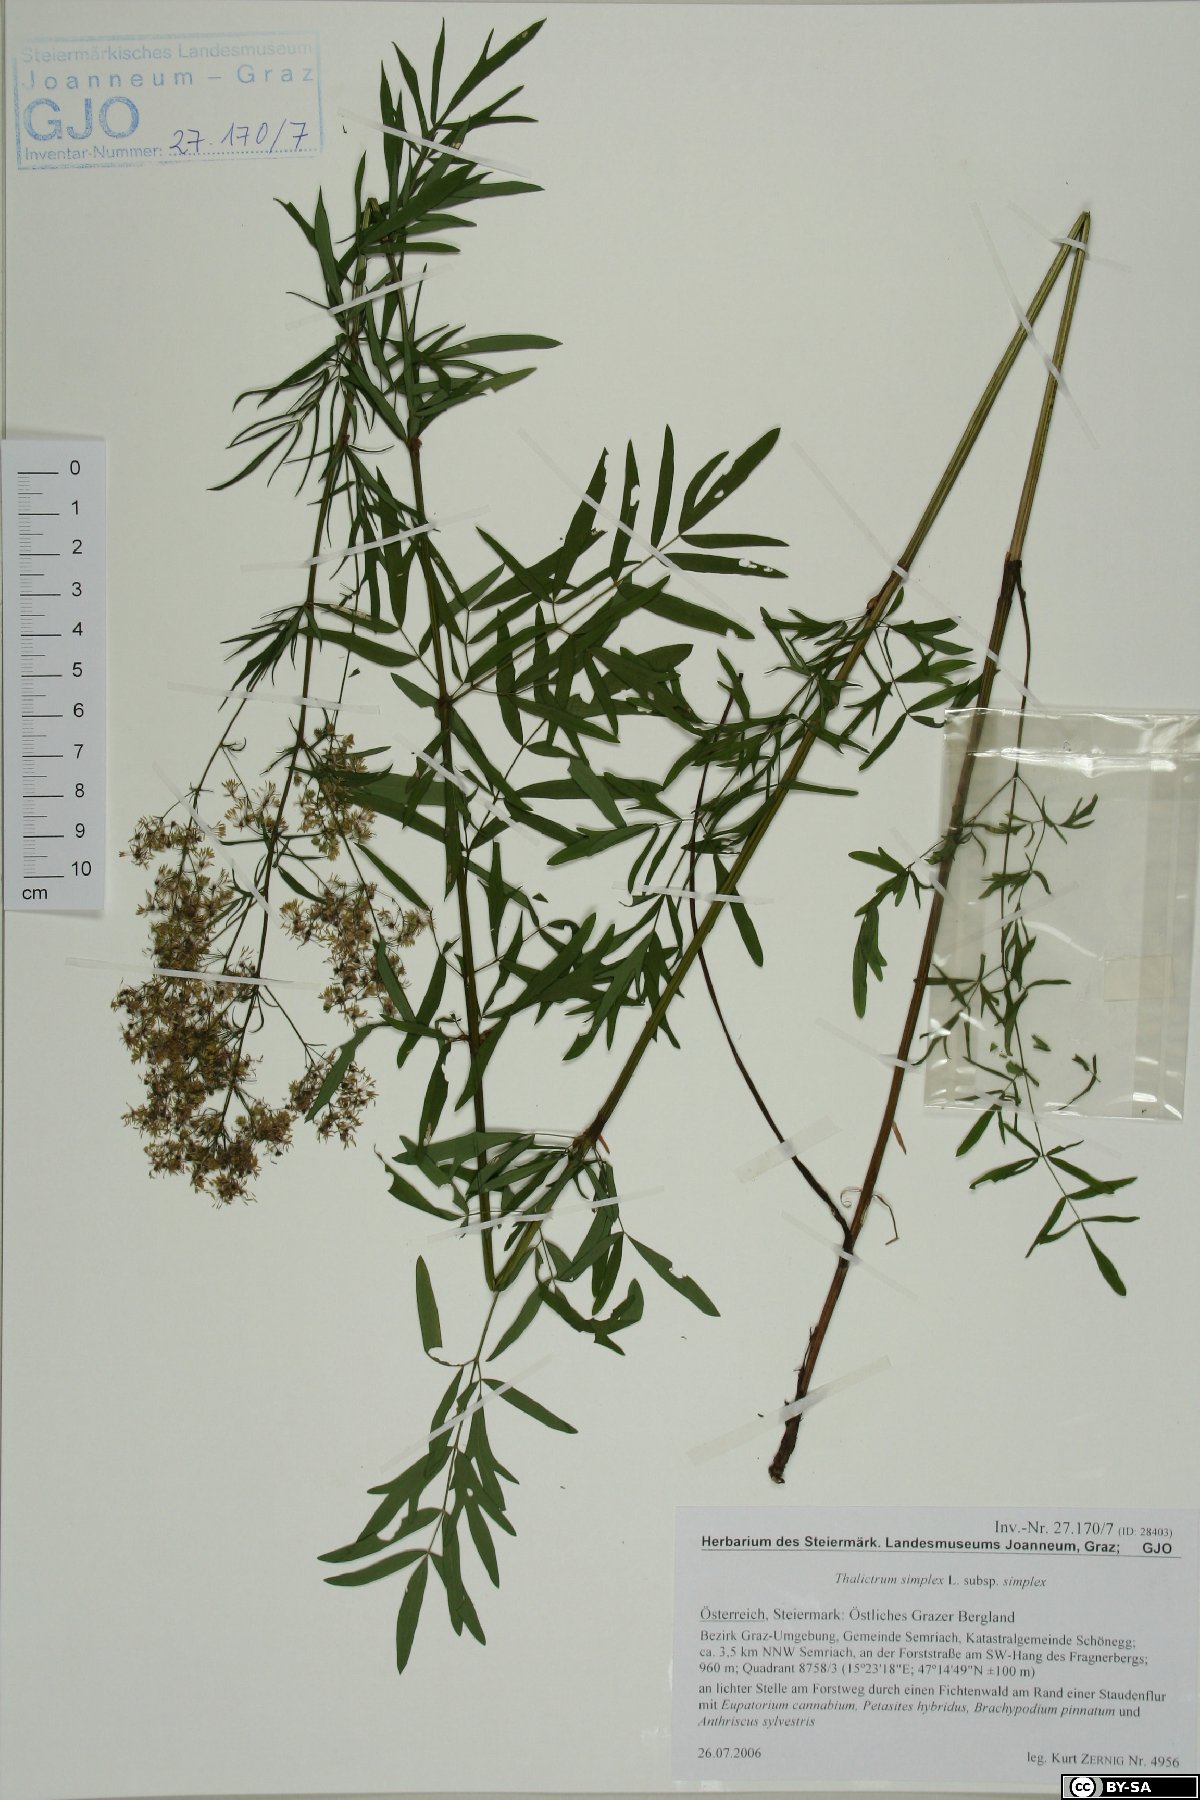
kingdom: Plantae
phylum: Tracheophyta
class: Magnoliopsida
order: Ranunculales
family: Ranunculaceae
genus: Thalictrum
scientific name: Thalictrum simplex
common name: Small meadow-rue
